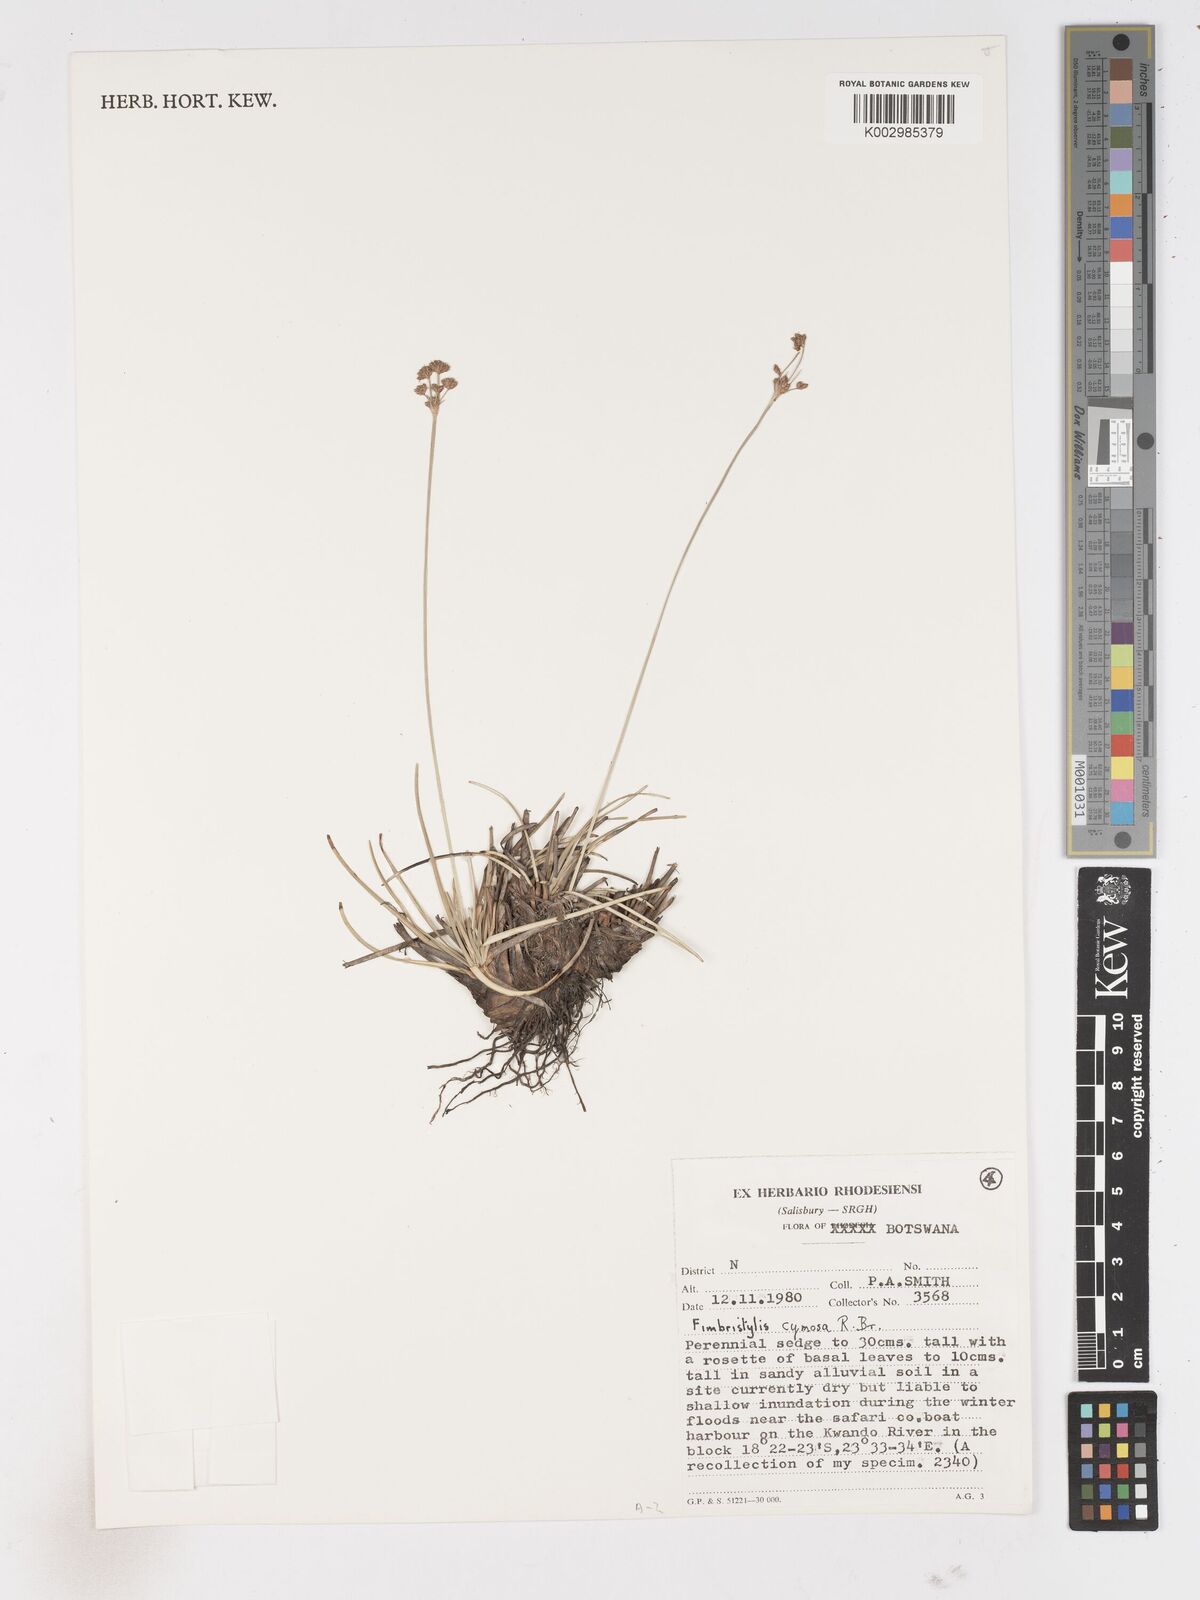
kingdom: Plantae
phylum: Tracheophyta
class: Liliopsida
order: Poales
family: Cyperaceae
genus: Fimbristylis
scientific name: Fimbristylis cymosa
